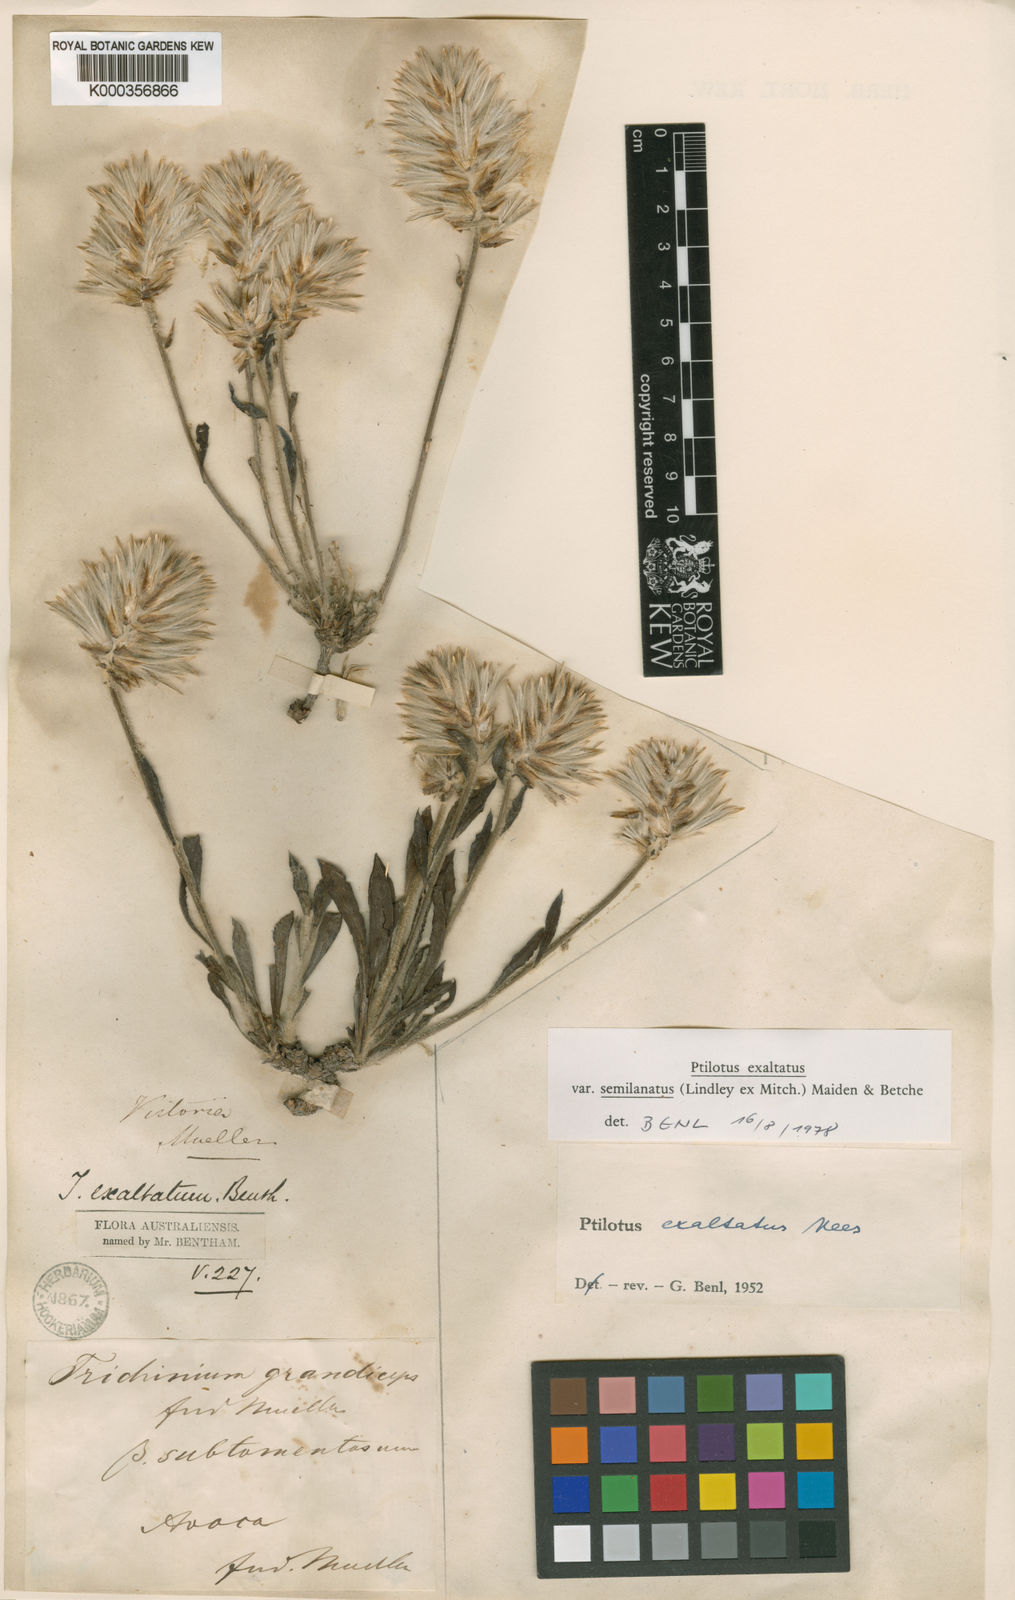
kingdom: Plantae
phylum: Tracheophyta
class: Magnoliopsida
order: Caryophyllales
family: Amaranthaceae
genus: Ptilotus
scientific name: Ptilotus semilanatus
